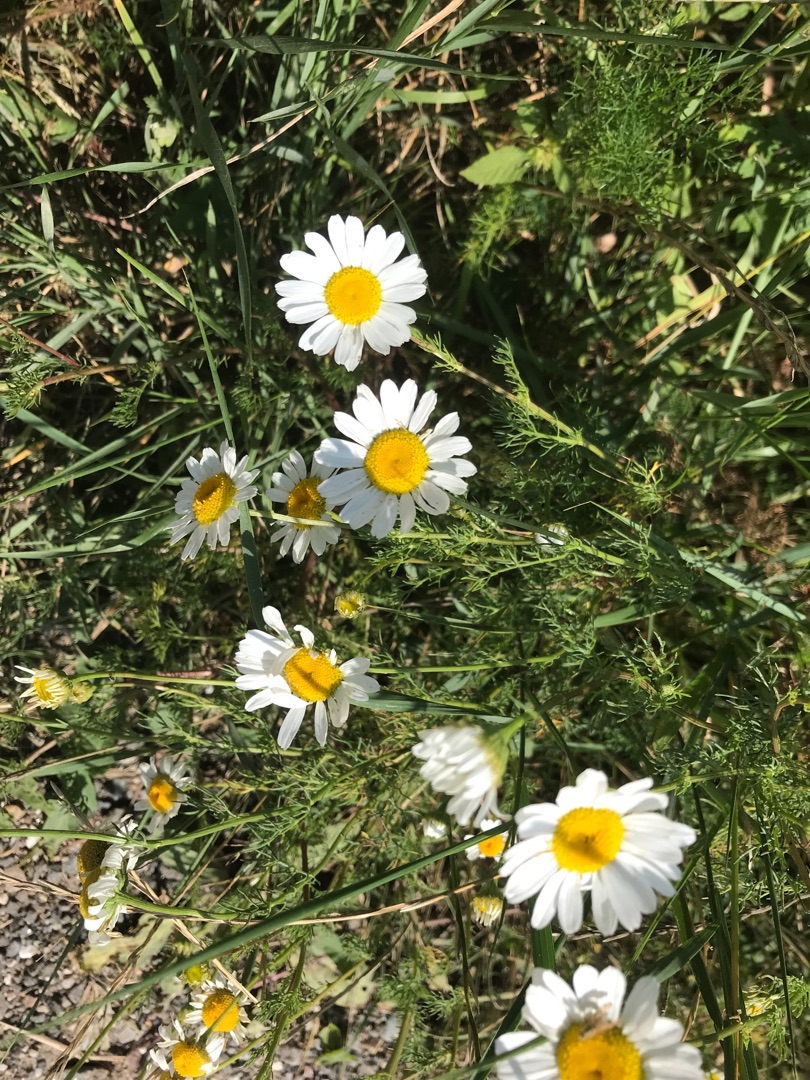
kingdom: Plantae
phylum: Tracheophyta
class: Magnoliopsida
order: Asterales
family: Asteraceae
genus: Tripleurospermum
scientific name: Tripleurospermum inodorum
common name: Lugtløs kamille
